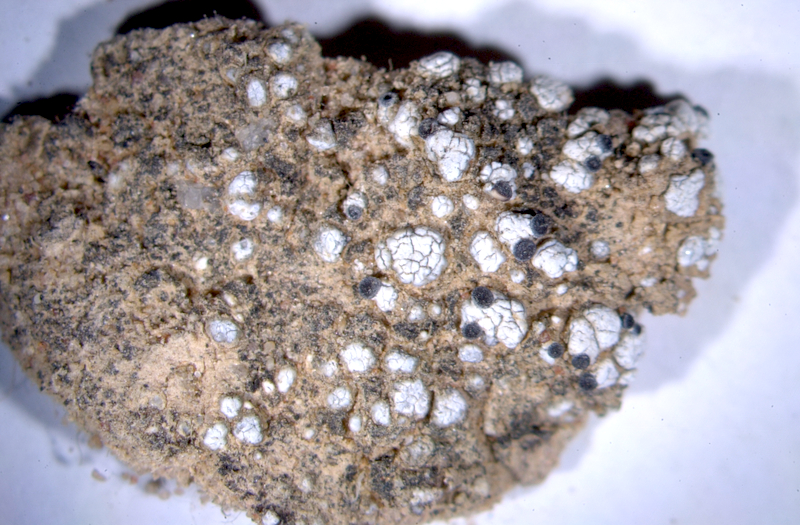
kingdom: Fungi
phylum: Ascomycota
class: Lecanoromycetes
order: Lecanorales
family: Ramalinaceae
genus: Bibbya
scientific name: Bibbya australis
